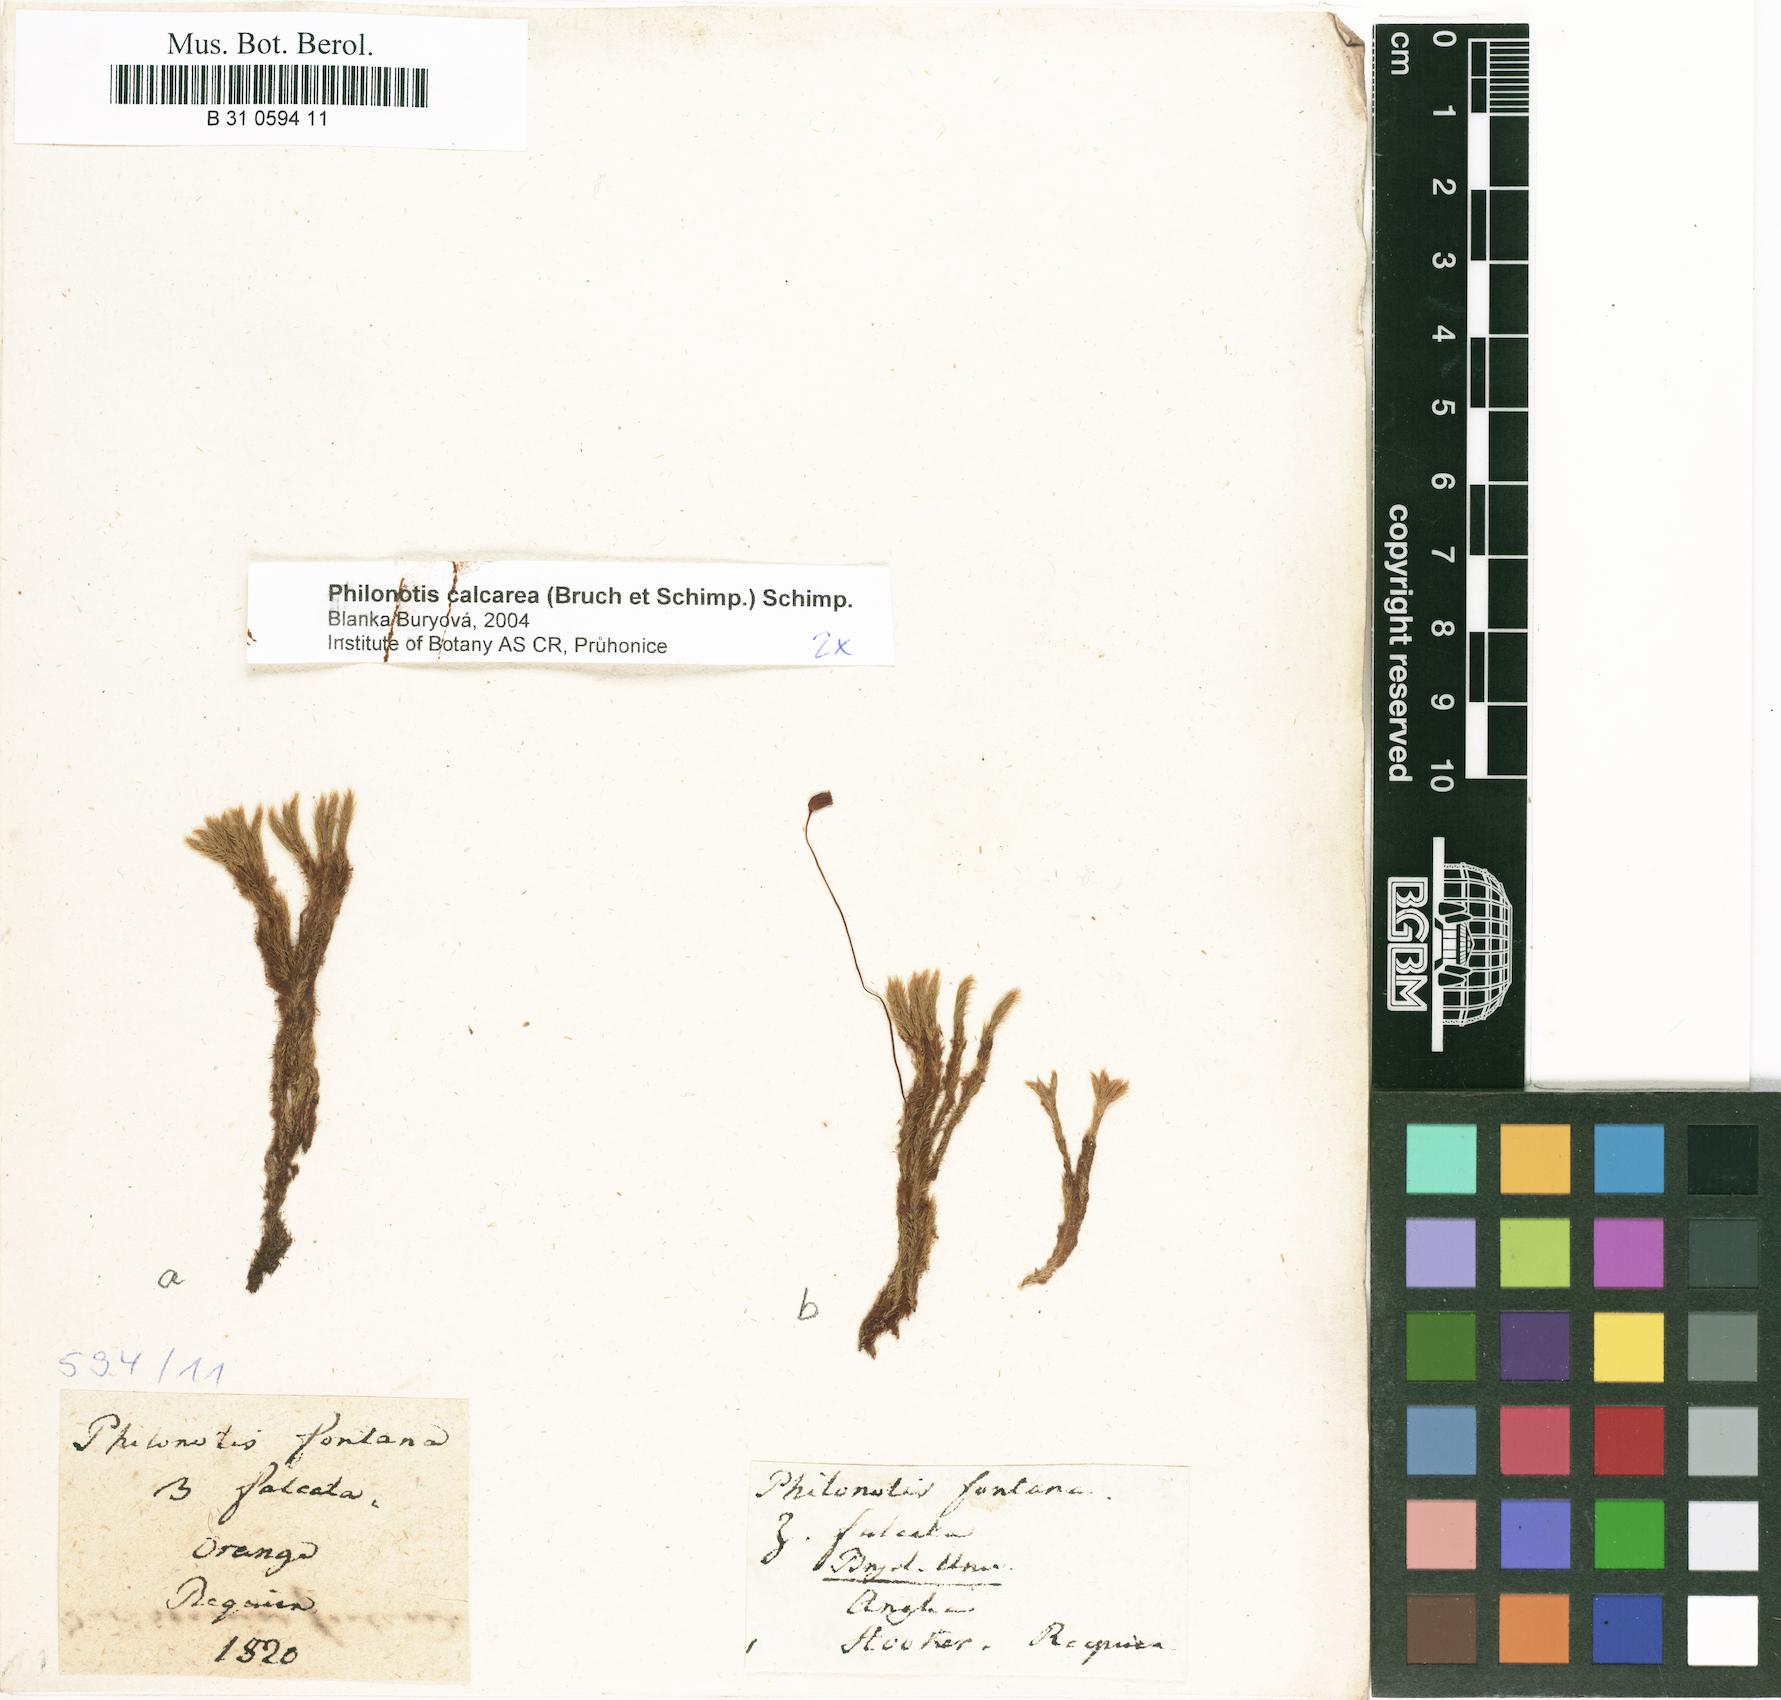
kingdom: Plantae
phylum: Bryophyta
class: Bryopsida
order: Bartramiales
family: Bartramiaceae
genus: Philonotis
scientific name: Philonotis fontana
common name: Fountain apple-moss
